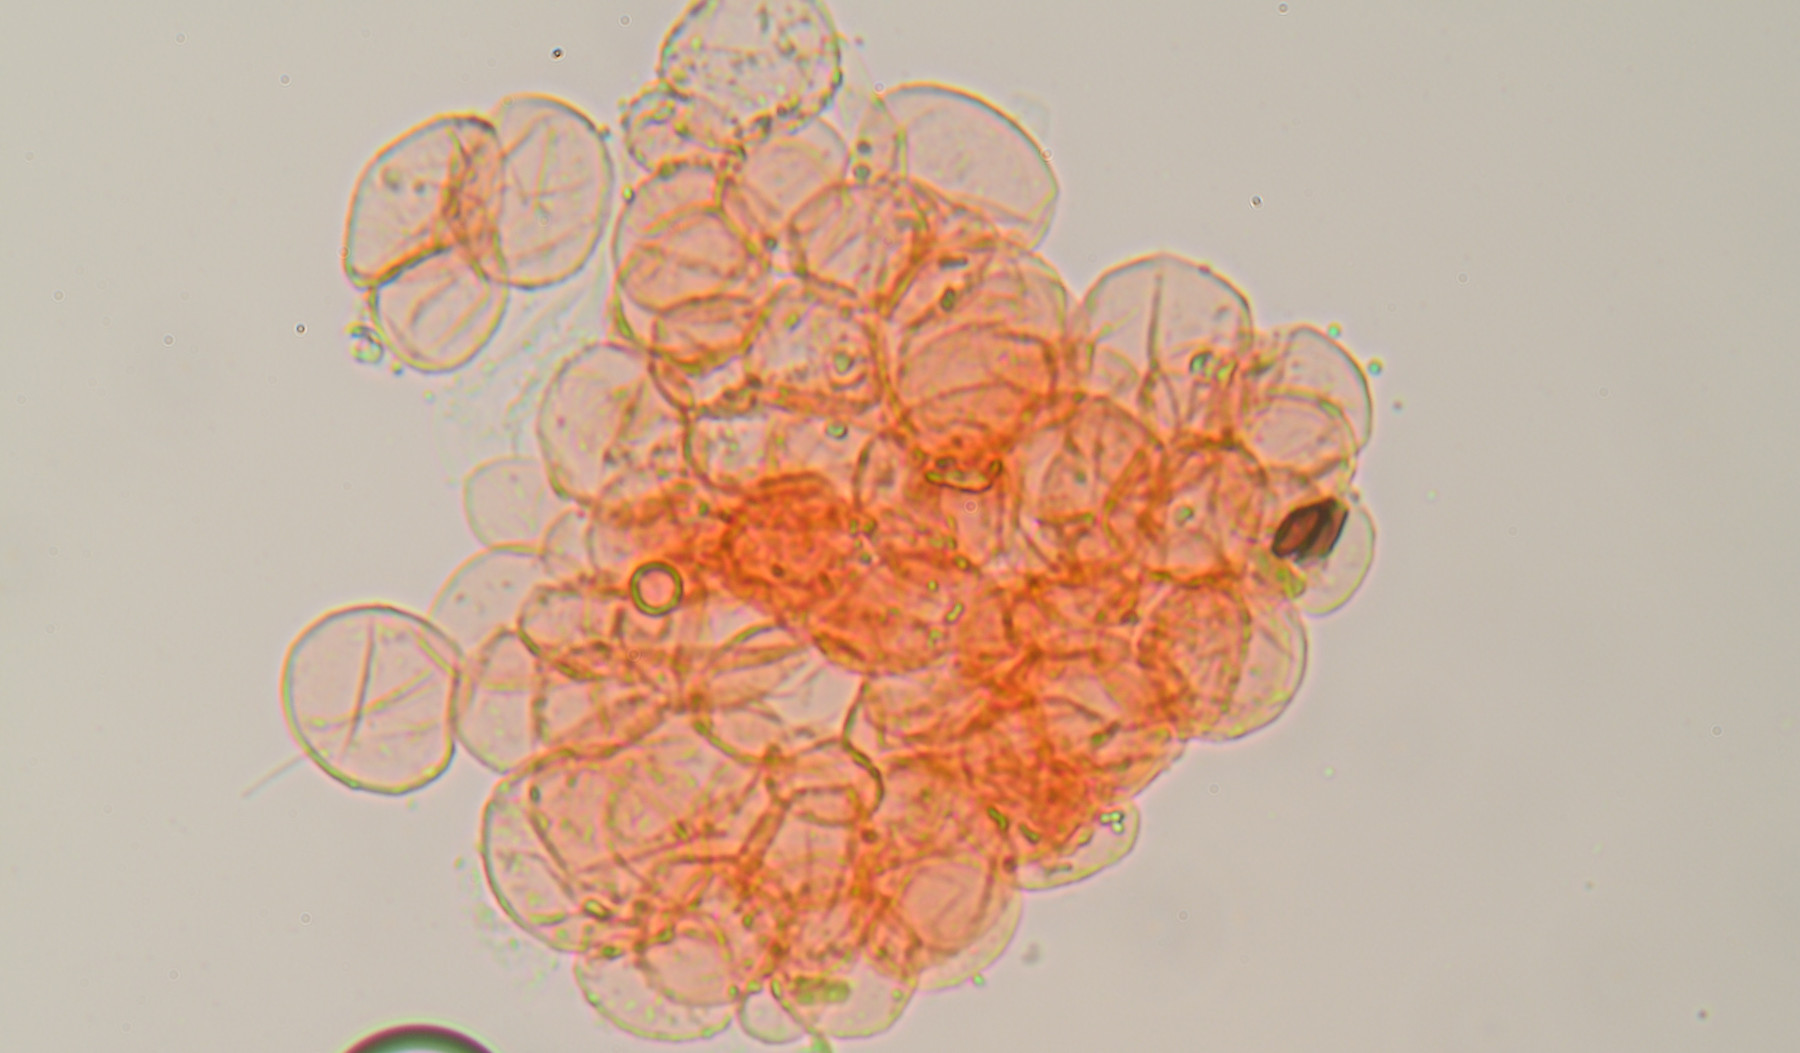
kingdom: Fungi
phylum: Basidiomycota
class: Agaricomycetes
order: Agaricales
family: Psathyrellaceae
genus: Narcissea
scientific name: Narcissea ephemeroides
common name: ring-blækhat
